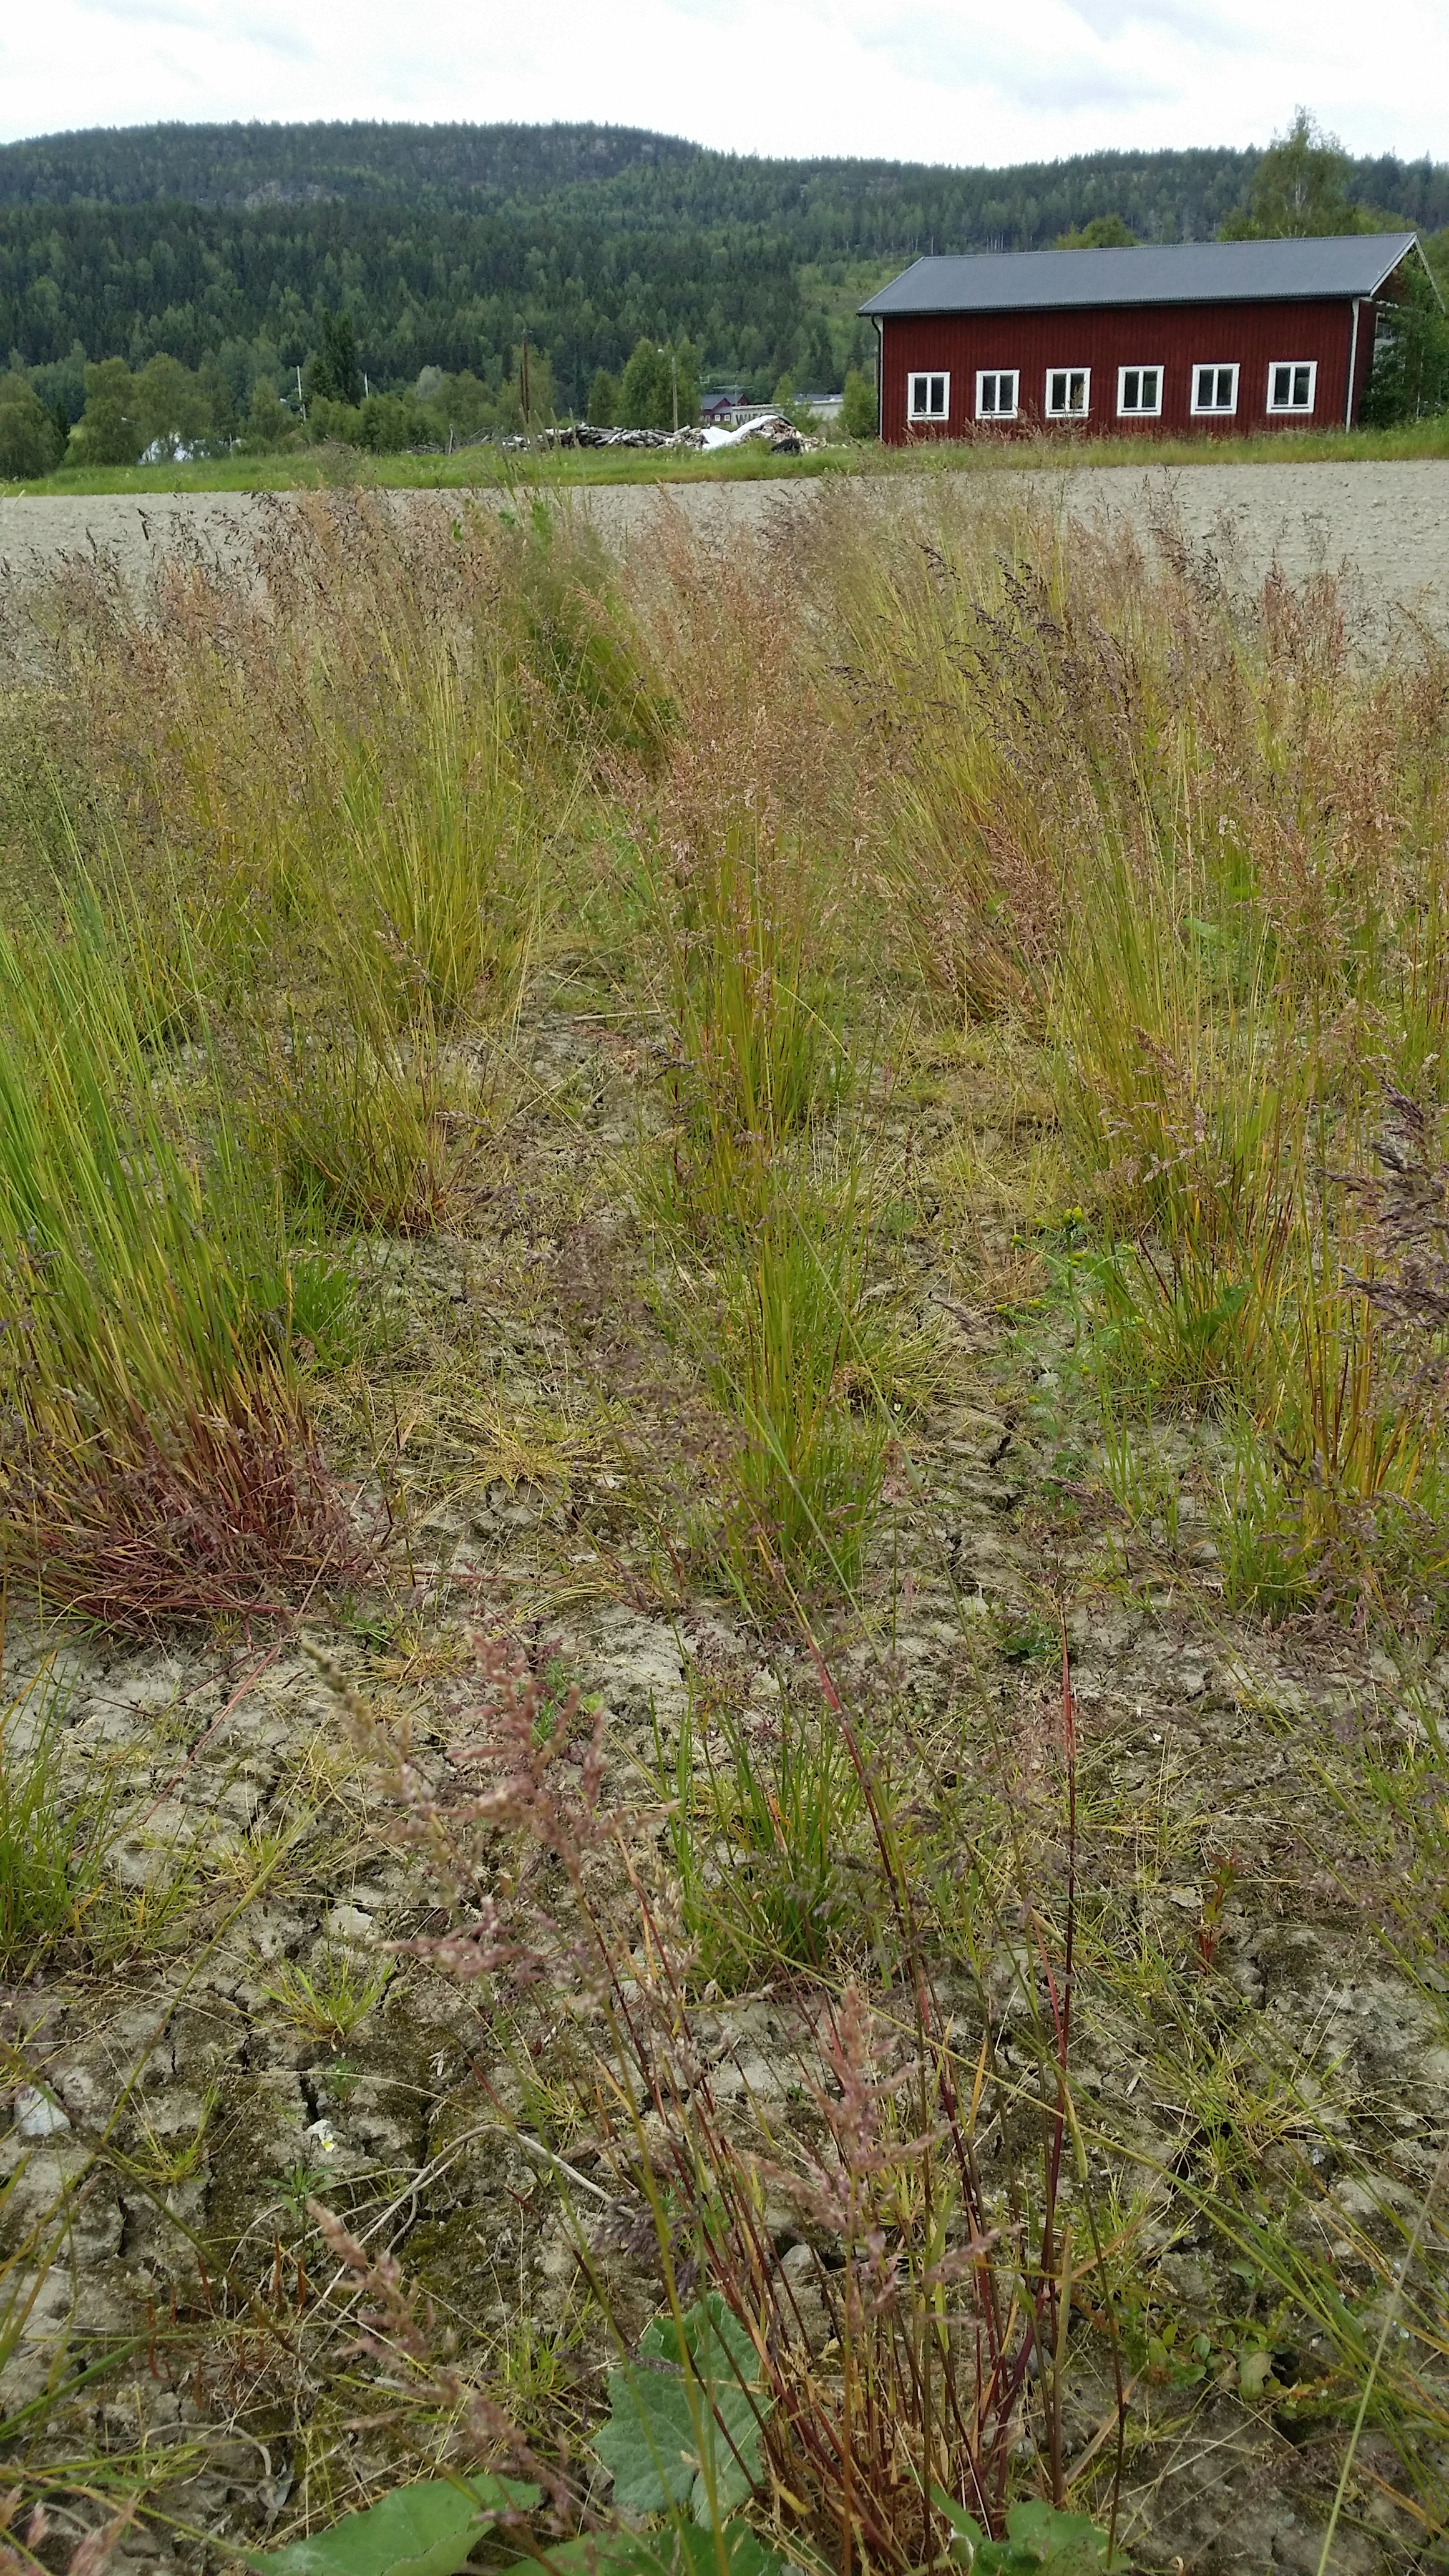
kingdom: Plantae
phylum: Tracheophyta
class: Liliopsida
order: Poales
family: Poaceae
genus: Poa
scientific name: Poa pratensis
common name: Kentucky bluegrass
